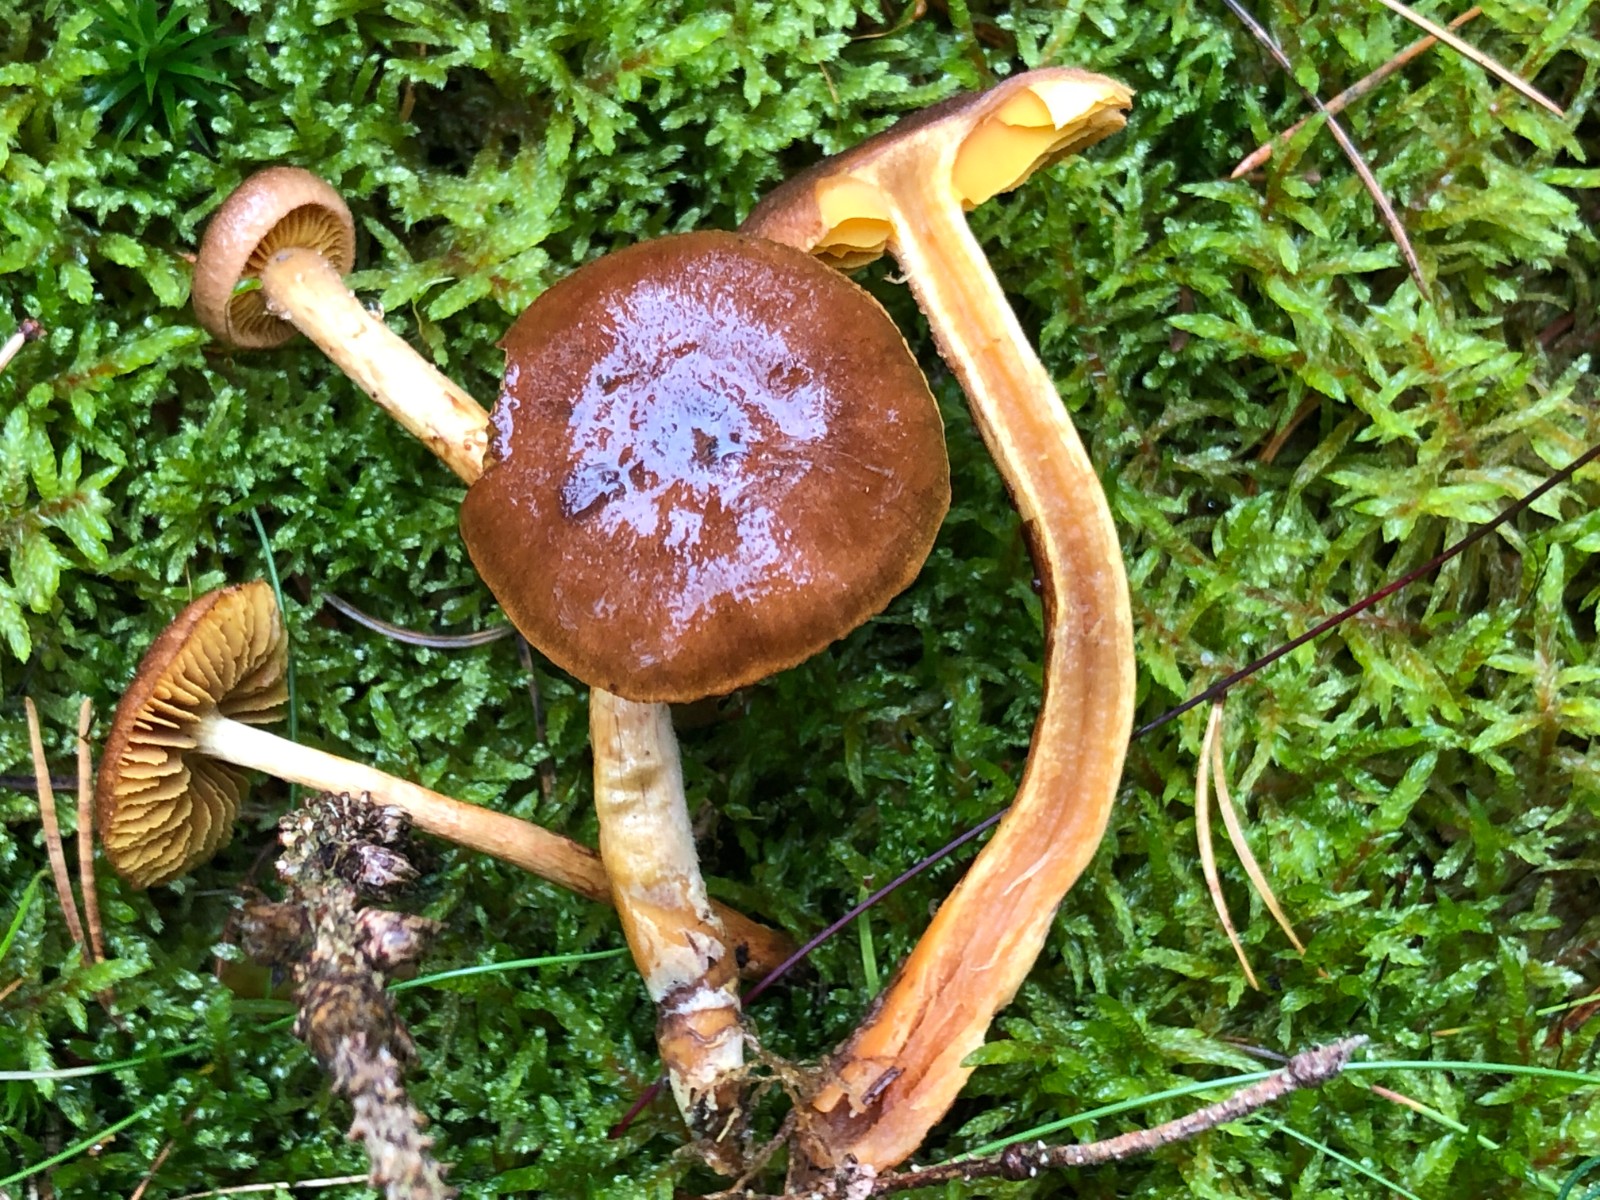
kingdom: Fungi
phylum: Basidiomycota
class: Agaricomycetes
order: Agaricales
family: Cortinariaceae
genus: Cortinarius
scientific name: Cortinarius
